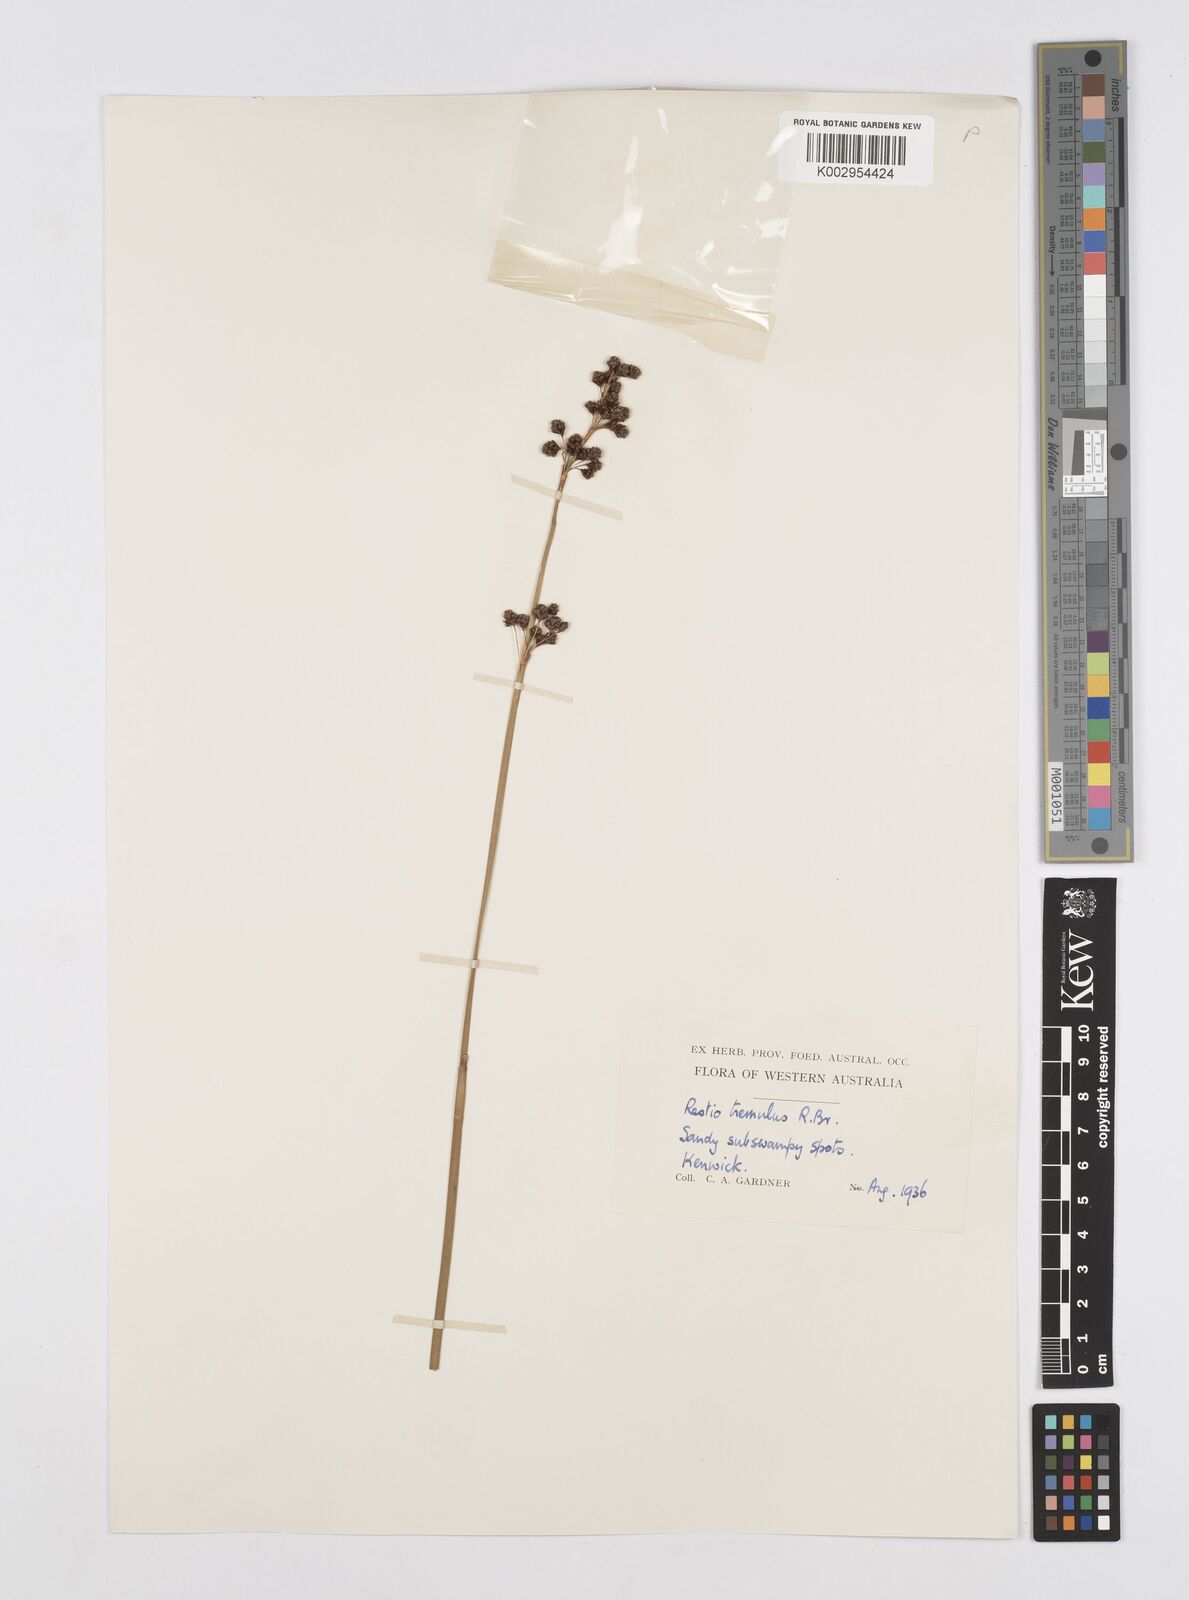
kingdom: Plantae
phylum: Tracheophyta
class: Liliopsida
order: Poales
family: Restionaceae
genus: Tremulina
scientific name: Tremulina tremula
